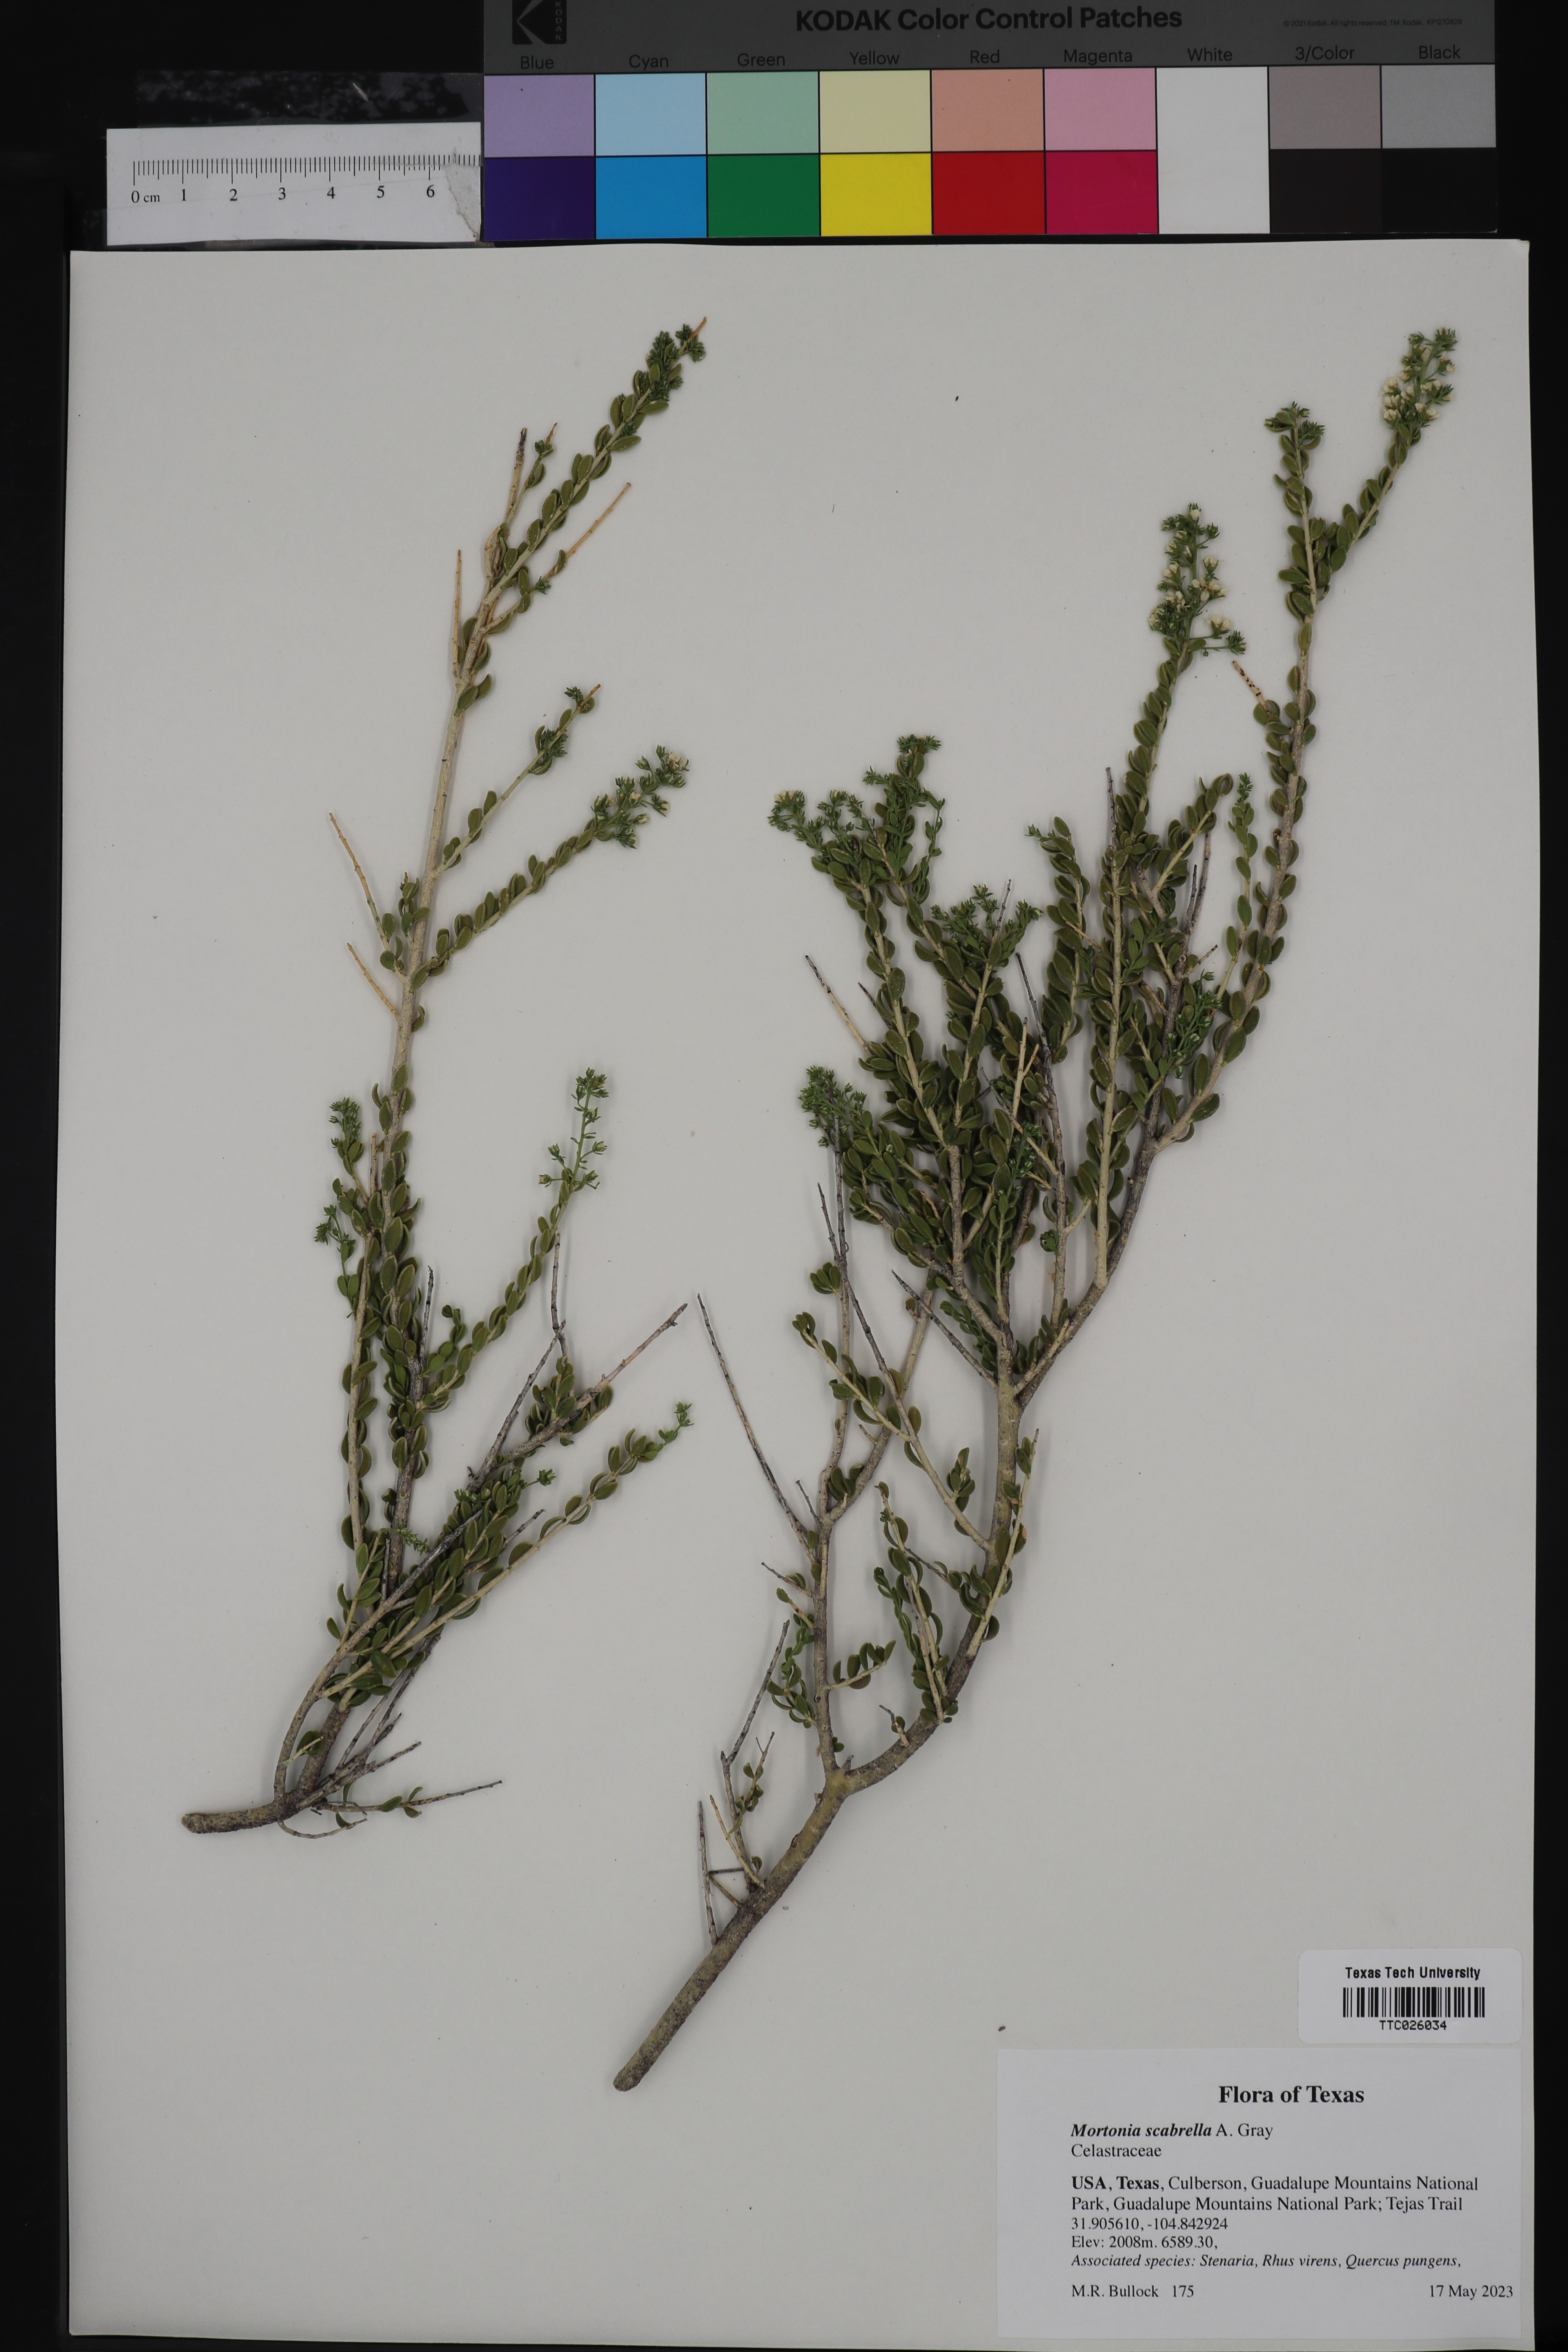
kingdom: Plantae
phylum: Tracheophyta
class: Magnoliopsida
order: Celastrales
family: Celastraceae
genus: Mortonia
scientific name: Mortonia scabrella
